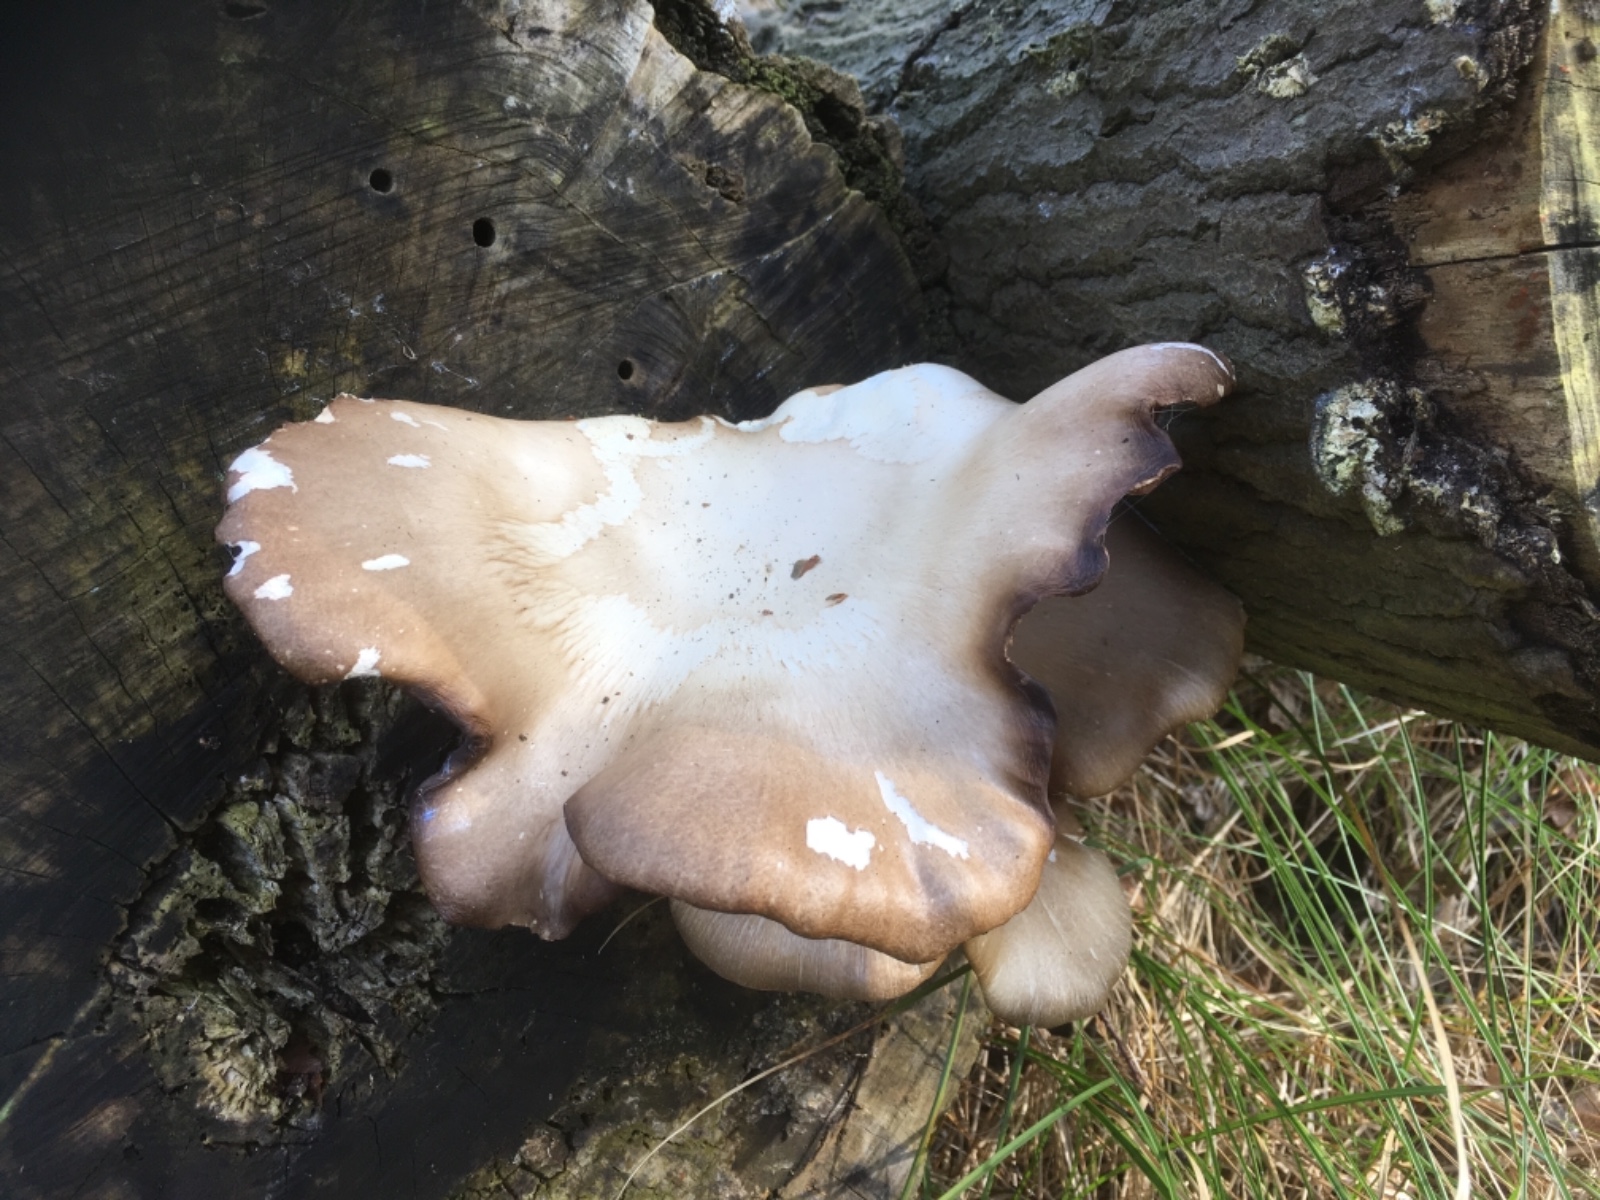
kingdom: Fungi
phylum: Basidiomycota
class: Agaricomycetes
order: Agaricales
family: Pleurotaceae
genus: Pleurotus
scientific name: Pleurotus ostreatus
